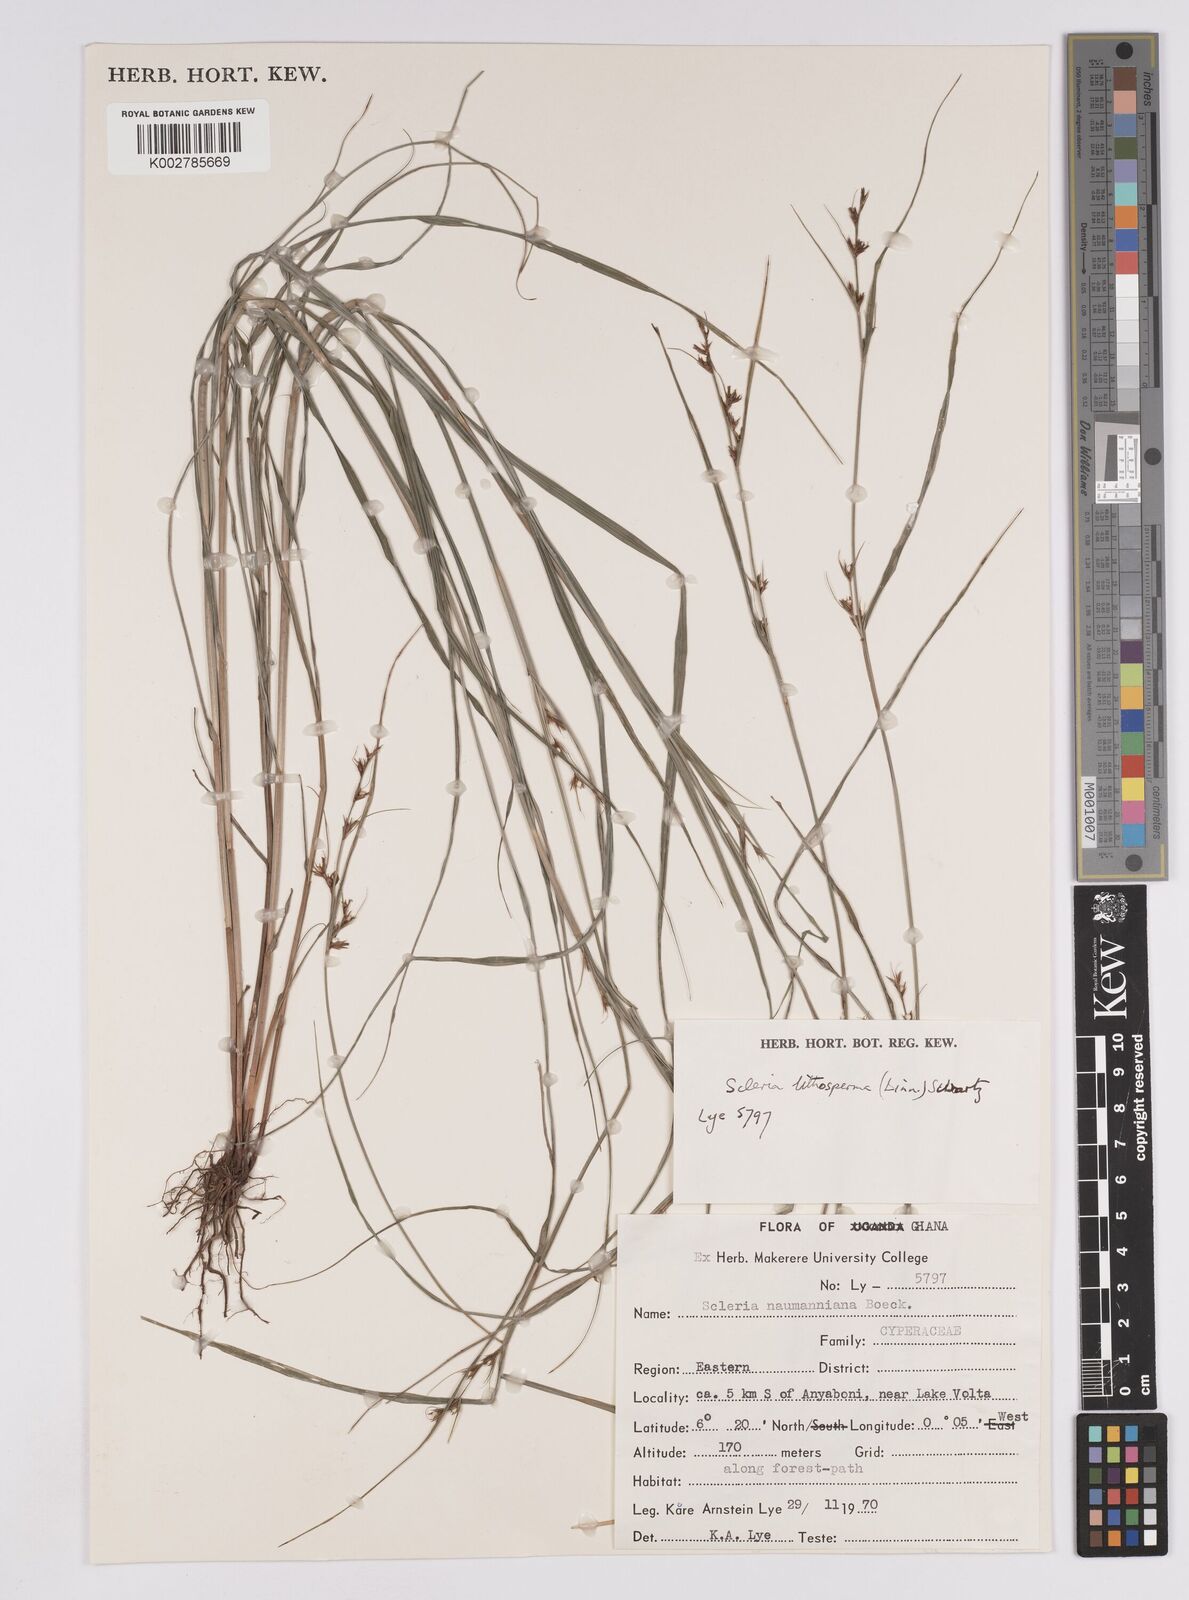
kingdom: Plantae
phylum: Tracheophyta
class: Liliopsida
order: Poales
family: Cyperaceae
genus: Scleria
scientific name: Scleria lithosperma
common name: Florida keys nut-rush
